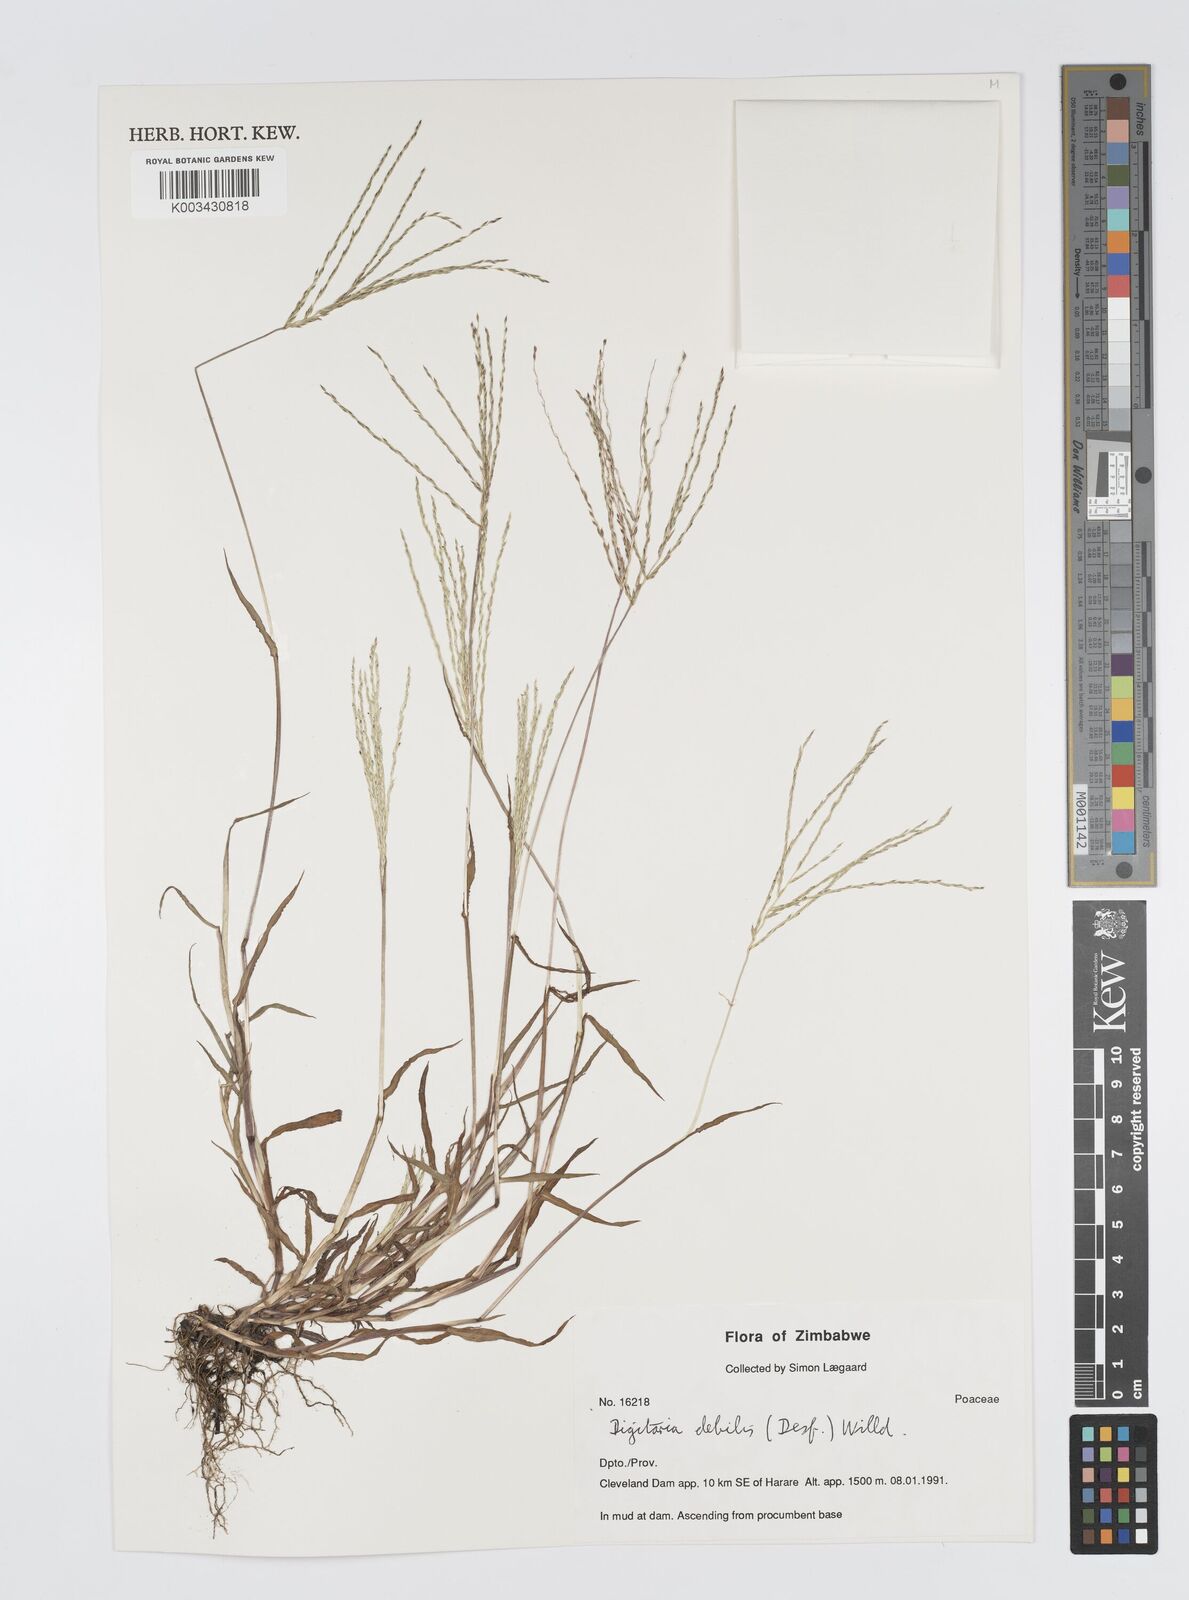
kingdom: Plantae
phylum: Tracheophyta
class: Liliopsida
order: Poales
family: Poaceae
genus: Digitaria
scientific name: Digitaria debilis
